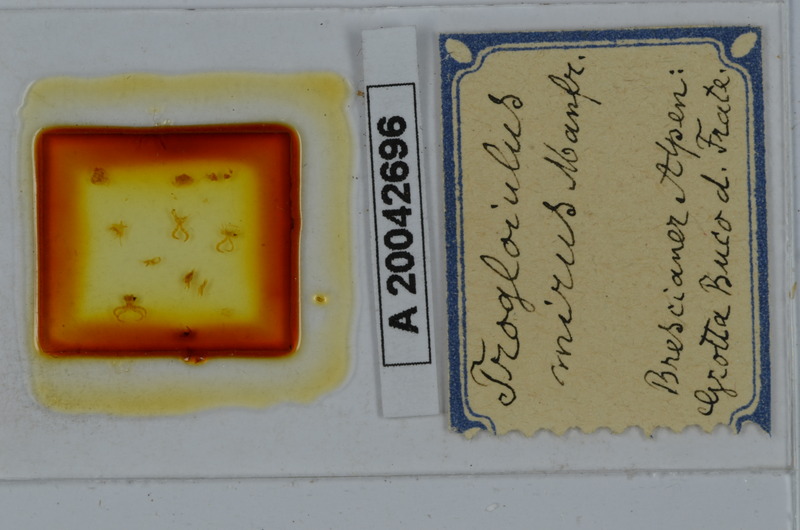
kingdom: Animalia
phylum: Arthropoda
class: Diplopoda
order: Spirostreptida
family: Spirostreptidae
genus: Anethoporus
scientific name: Anethoporus abstemius
